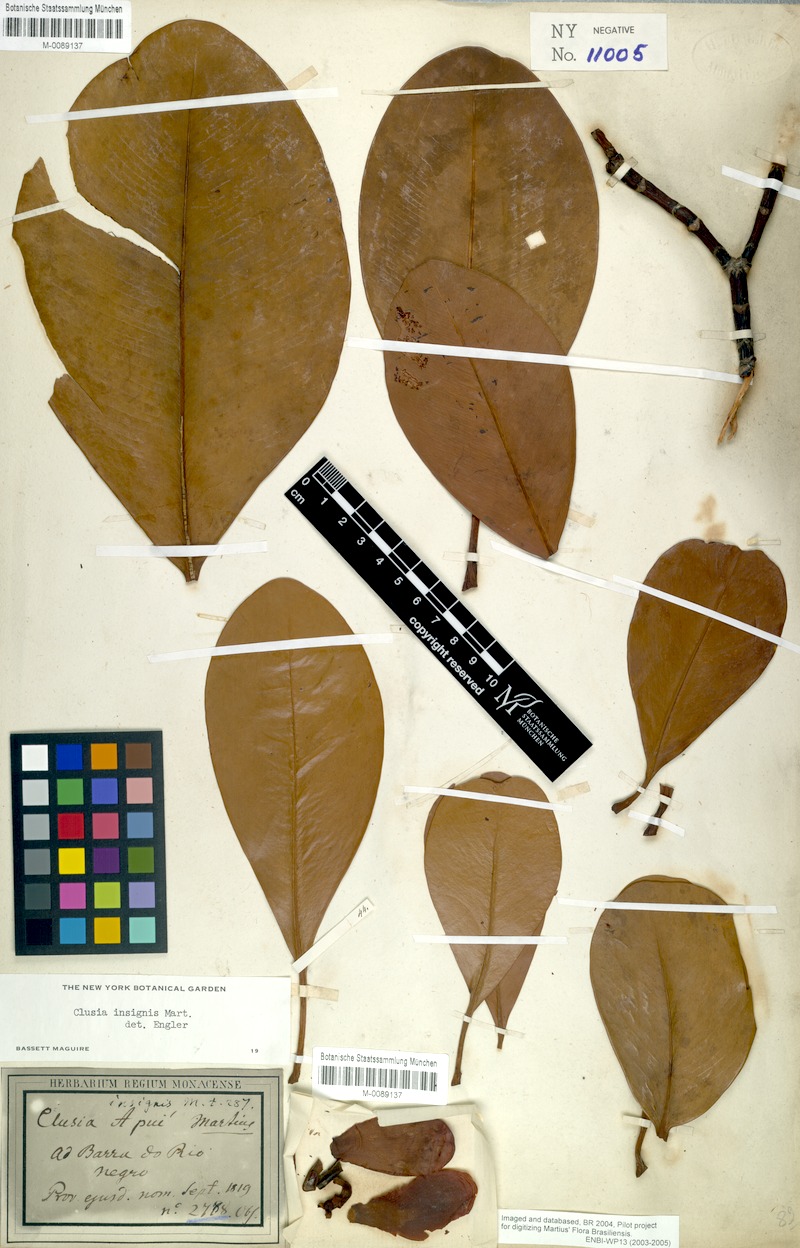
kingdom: Plantae
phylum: Tracheophyta
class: Magnoliopsida
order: Malpighiales
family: Clusiaceae
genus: Clusia
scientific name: Clusia insignis
